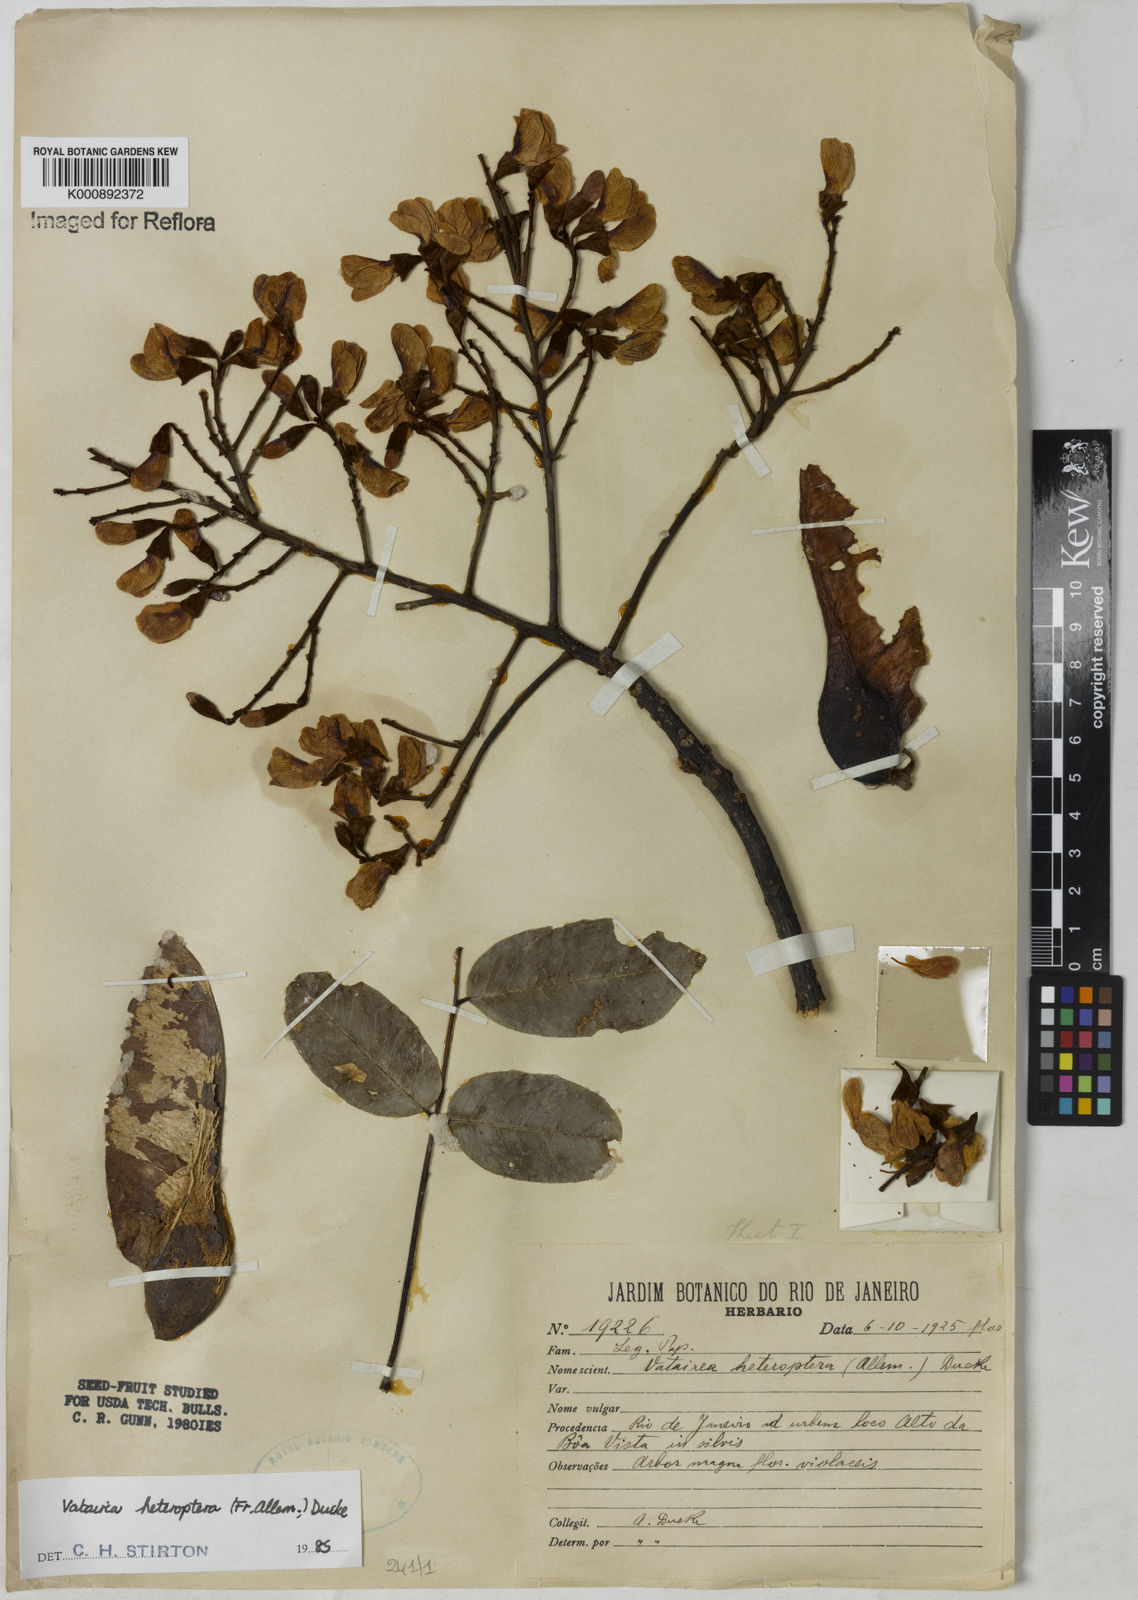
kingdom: Plantae
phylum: Tracheophyta
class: Magnoliopsida
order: Fabales
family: Fabaceae
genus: Vatairea
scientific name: Vatairea
